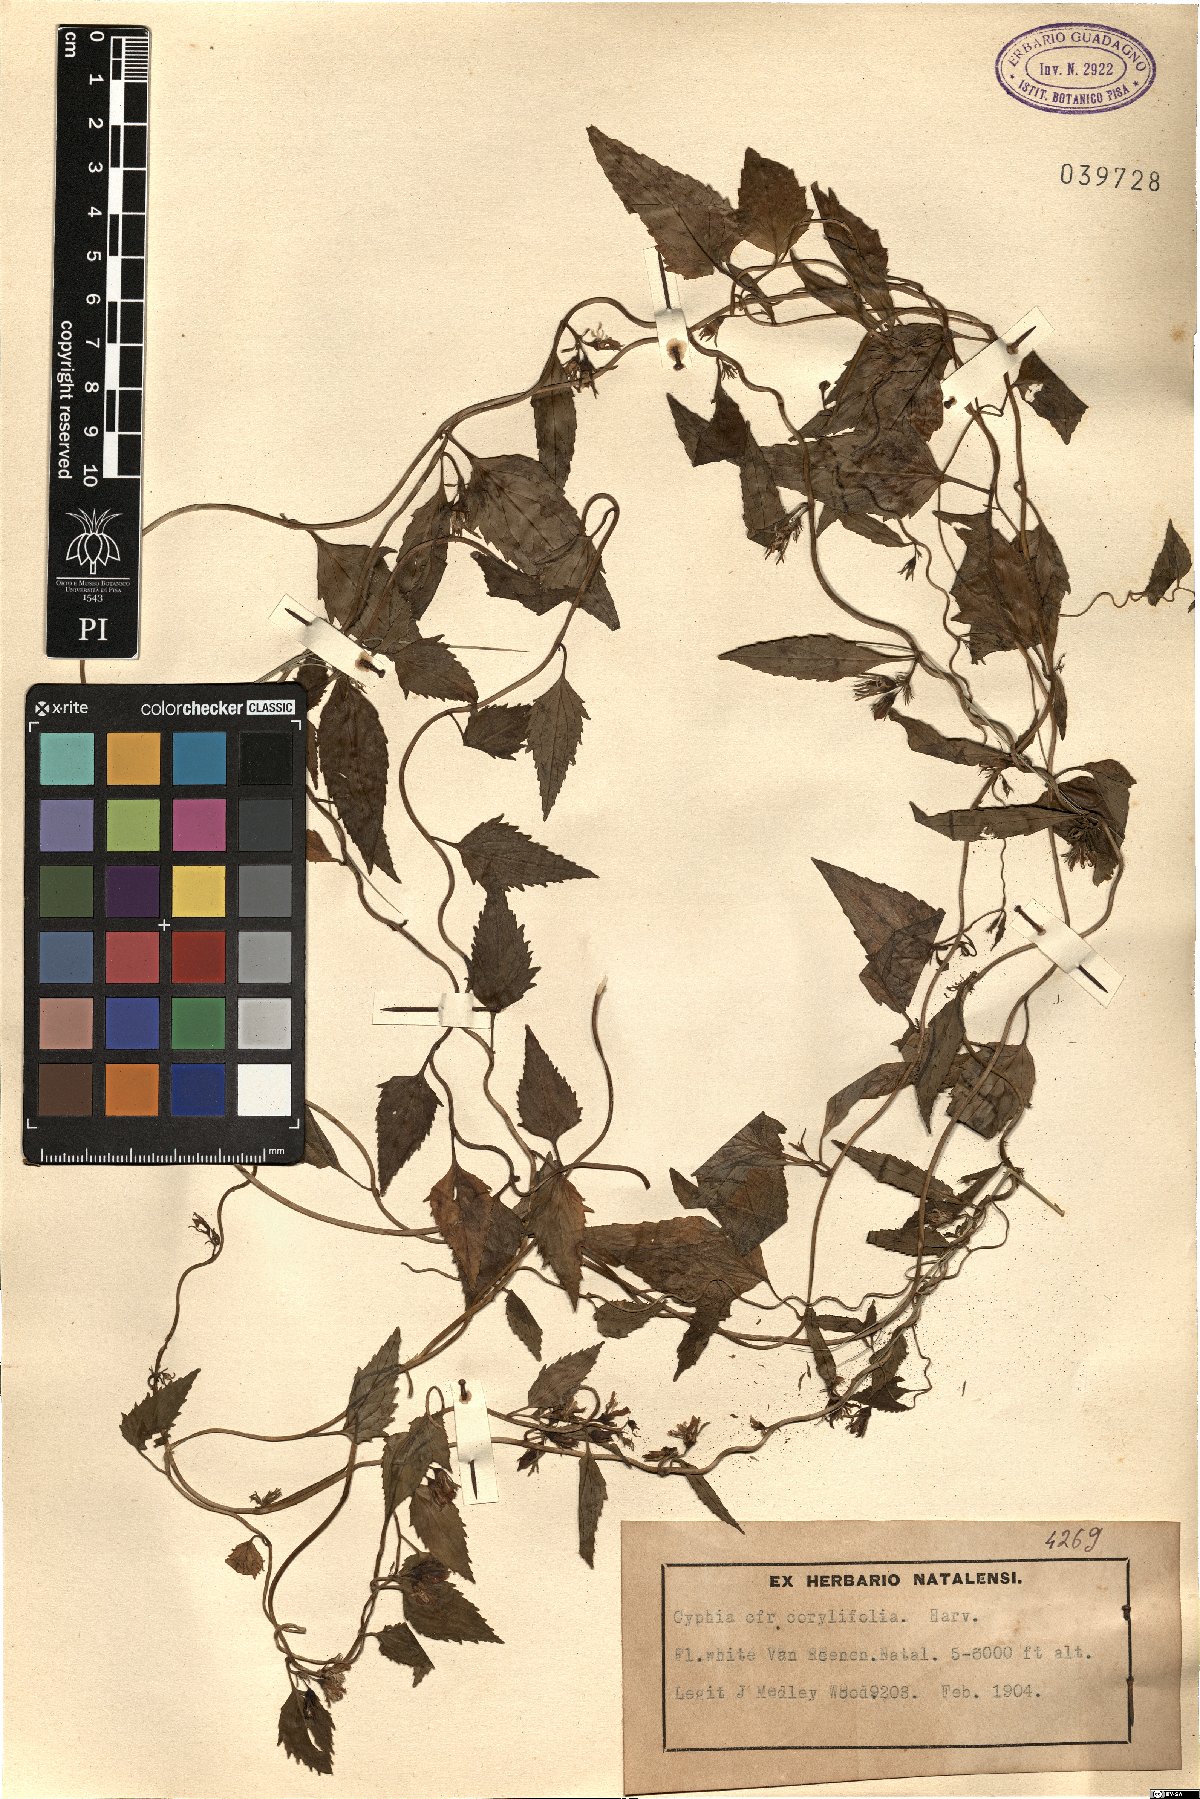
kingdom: Plantae
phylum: Tracheophyta
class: Magnoliopsida
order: Asterales
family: Campanulaceae
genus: Cyphia
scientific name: Cyphia corylifolia
